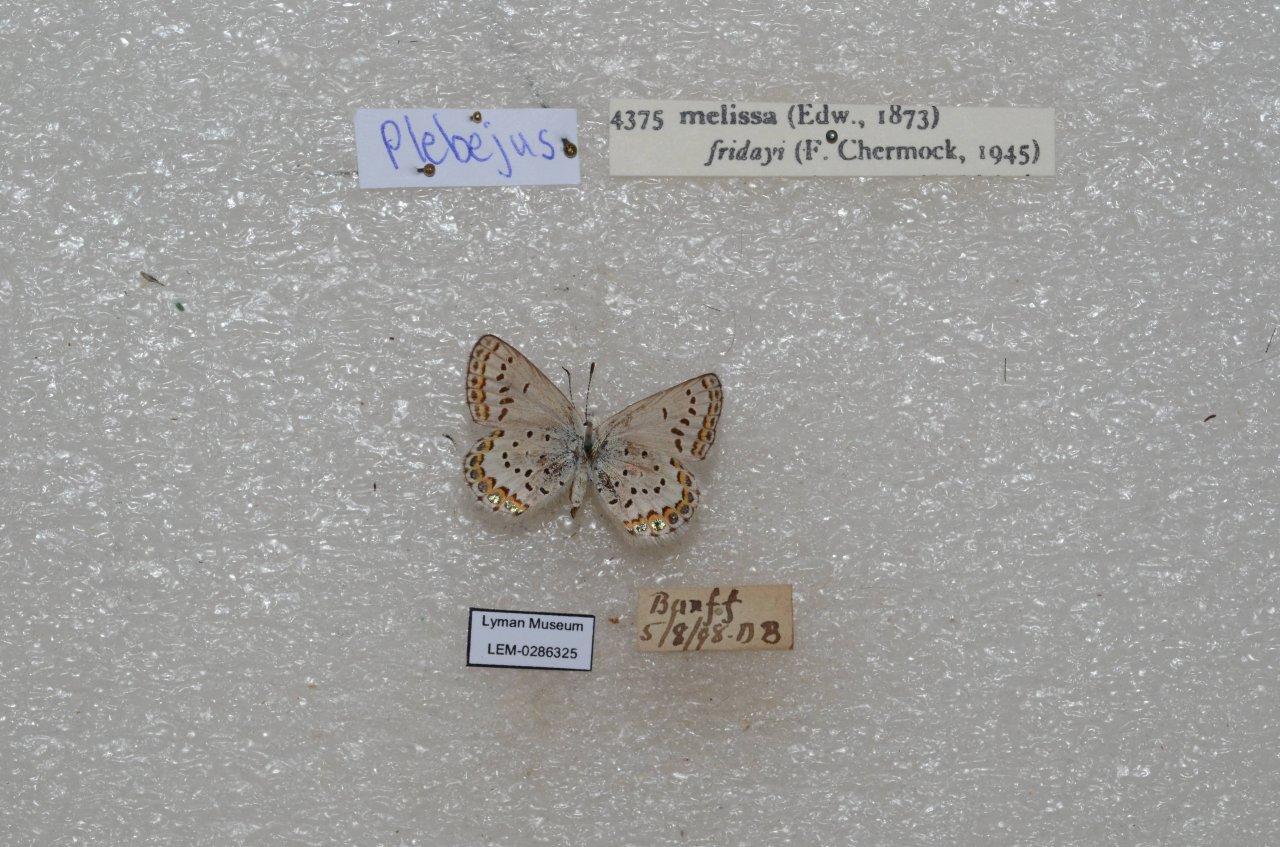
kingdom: Animalia
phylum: Arthropoda
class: Insecta
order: Lepidoptera
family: Lycaenidae
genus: Lycaeides
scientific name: Lycaeides melissa
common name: Melissa Blue
